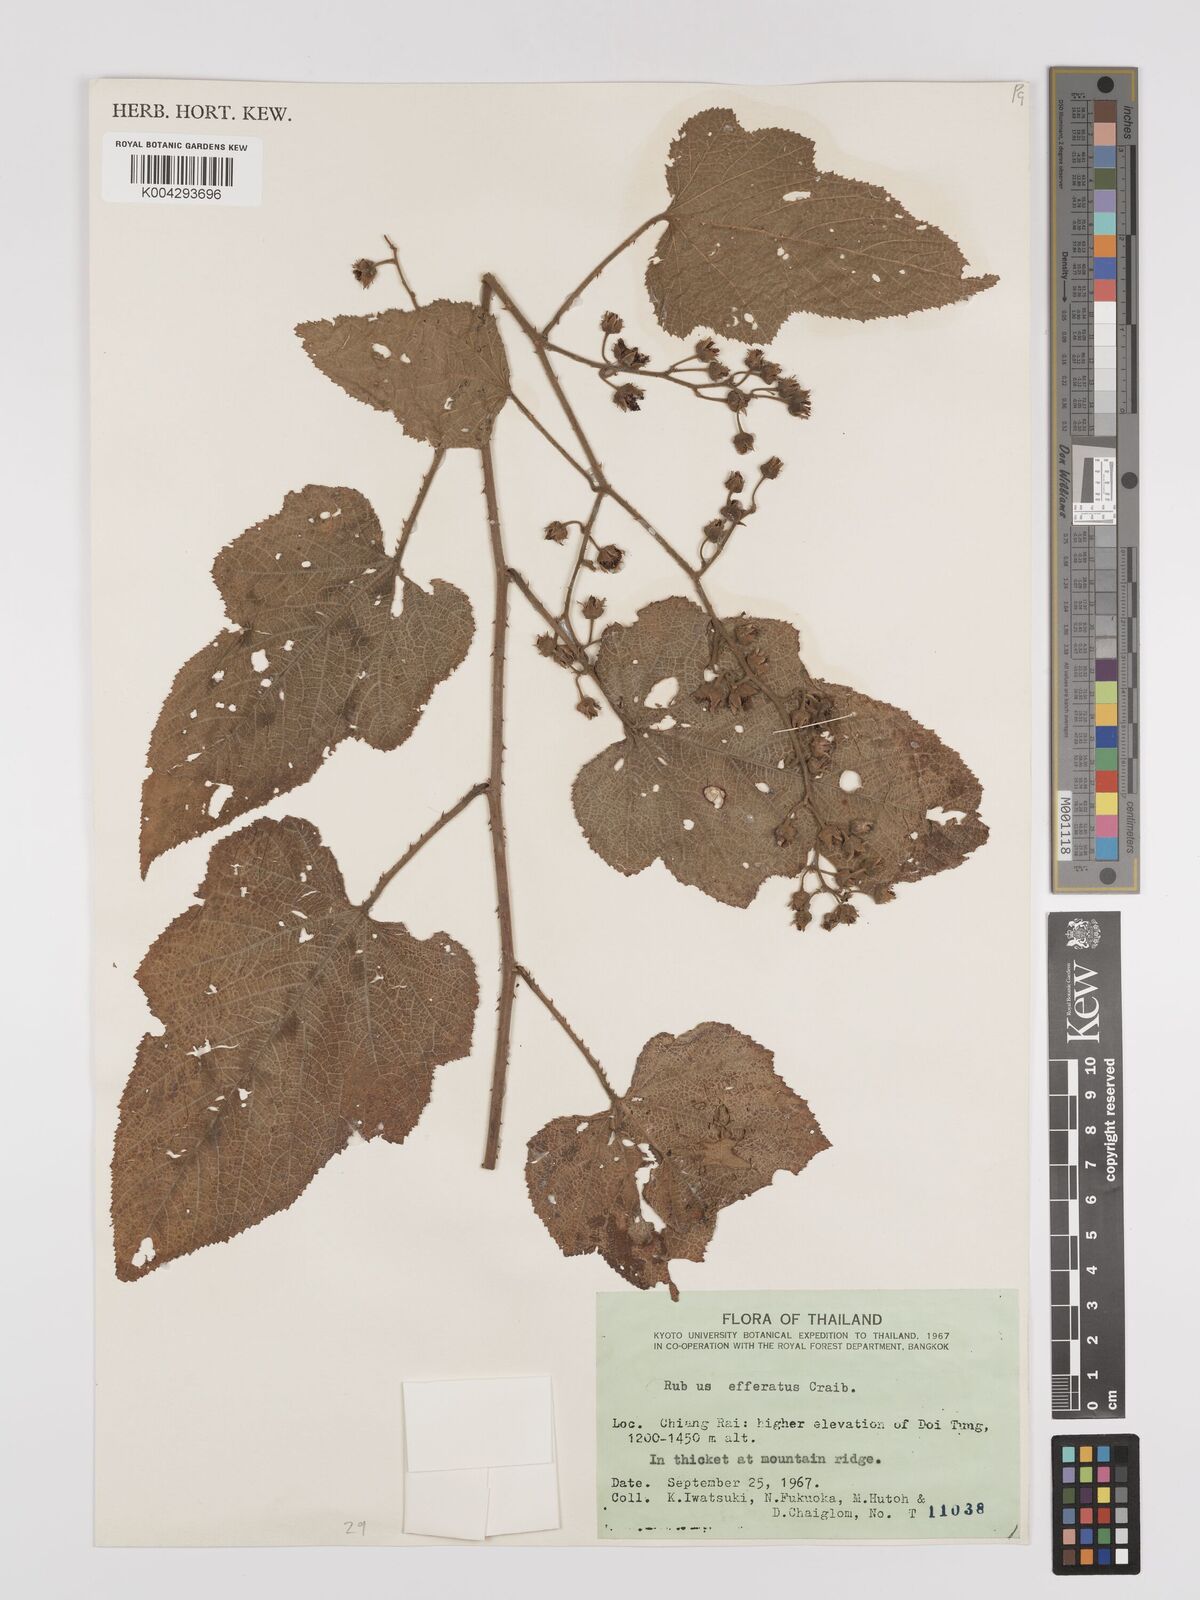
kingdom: Plantae
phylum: Tracheophyta
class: Magnoliopsida
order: Rosales
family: Rosaceae
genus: Rubus
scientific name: Rubus
